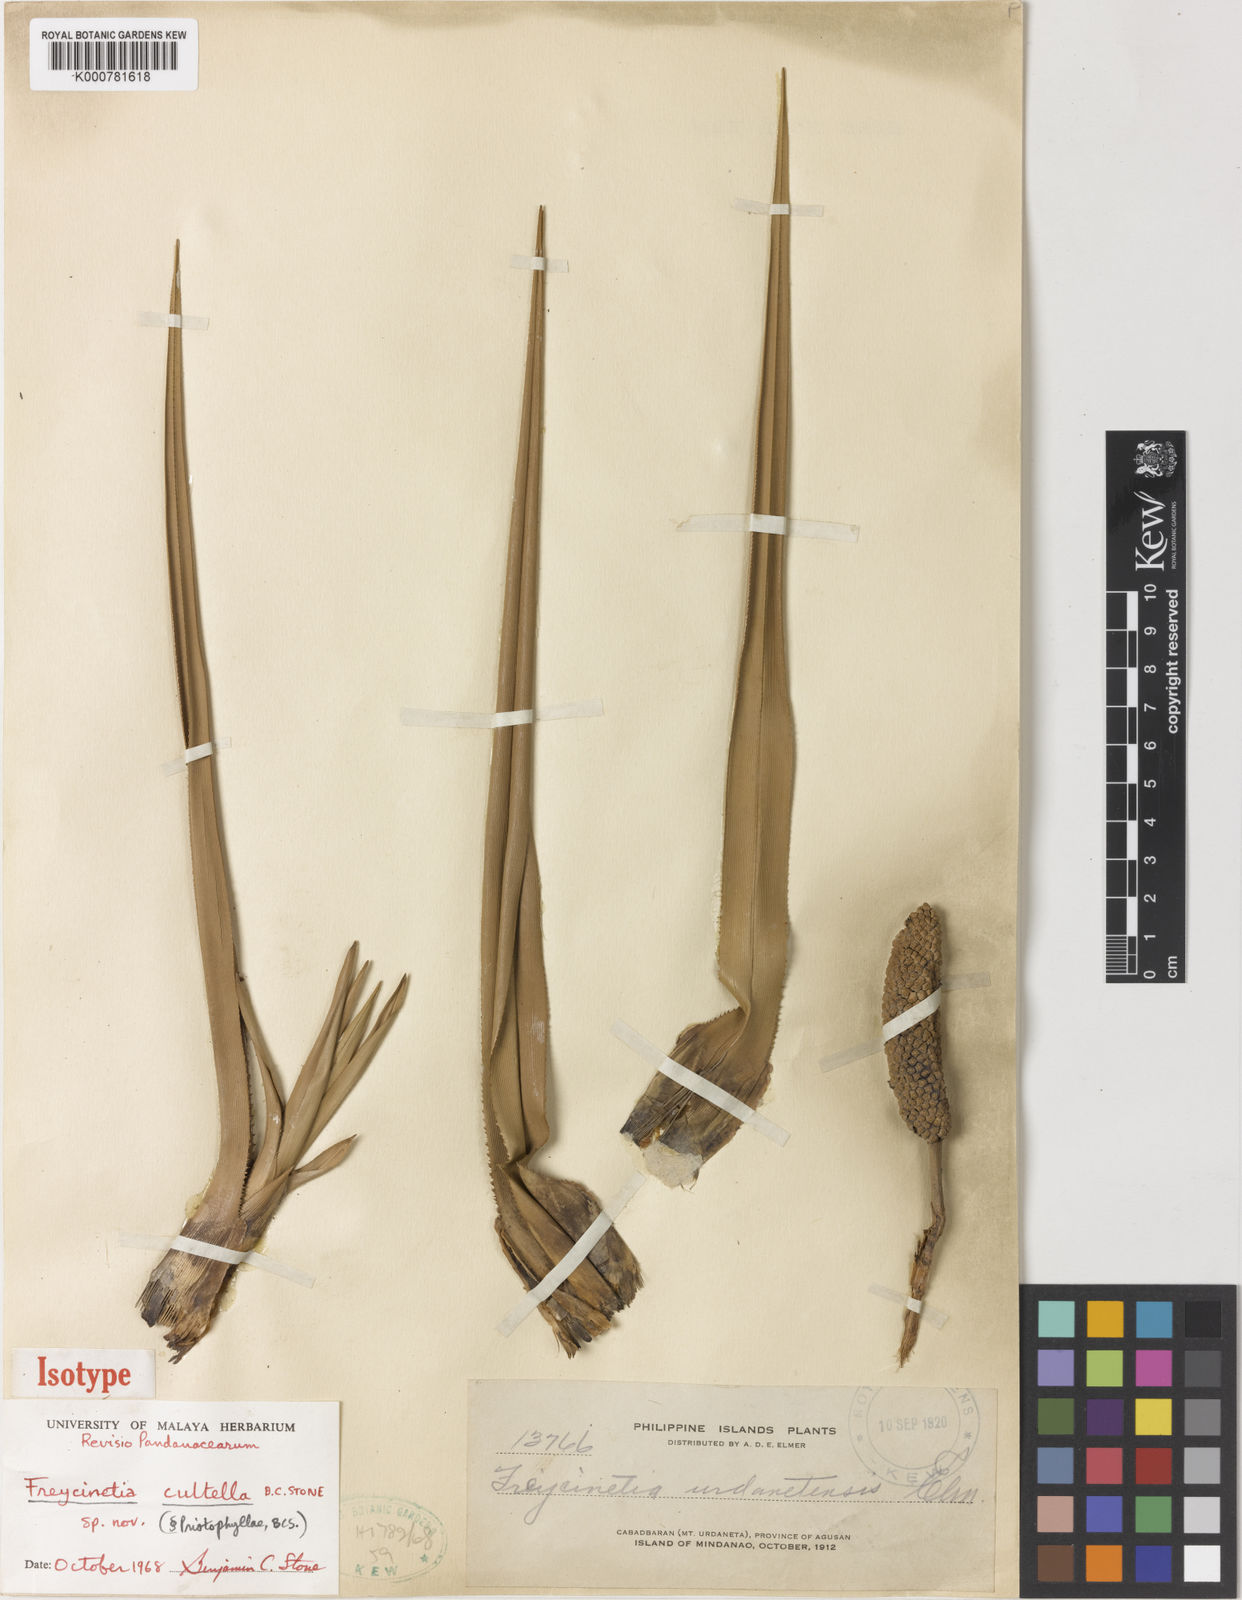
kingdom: Plantae
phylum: Tracheophyta
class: Liliopsida
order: Pandanales
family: Pandanaceae
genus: Freycinetia
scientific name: Freycinetia
